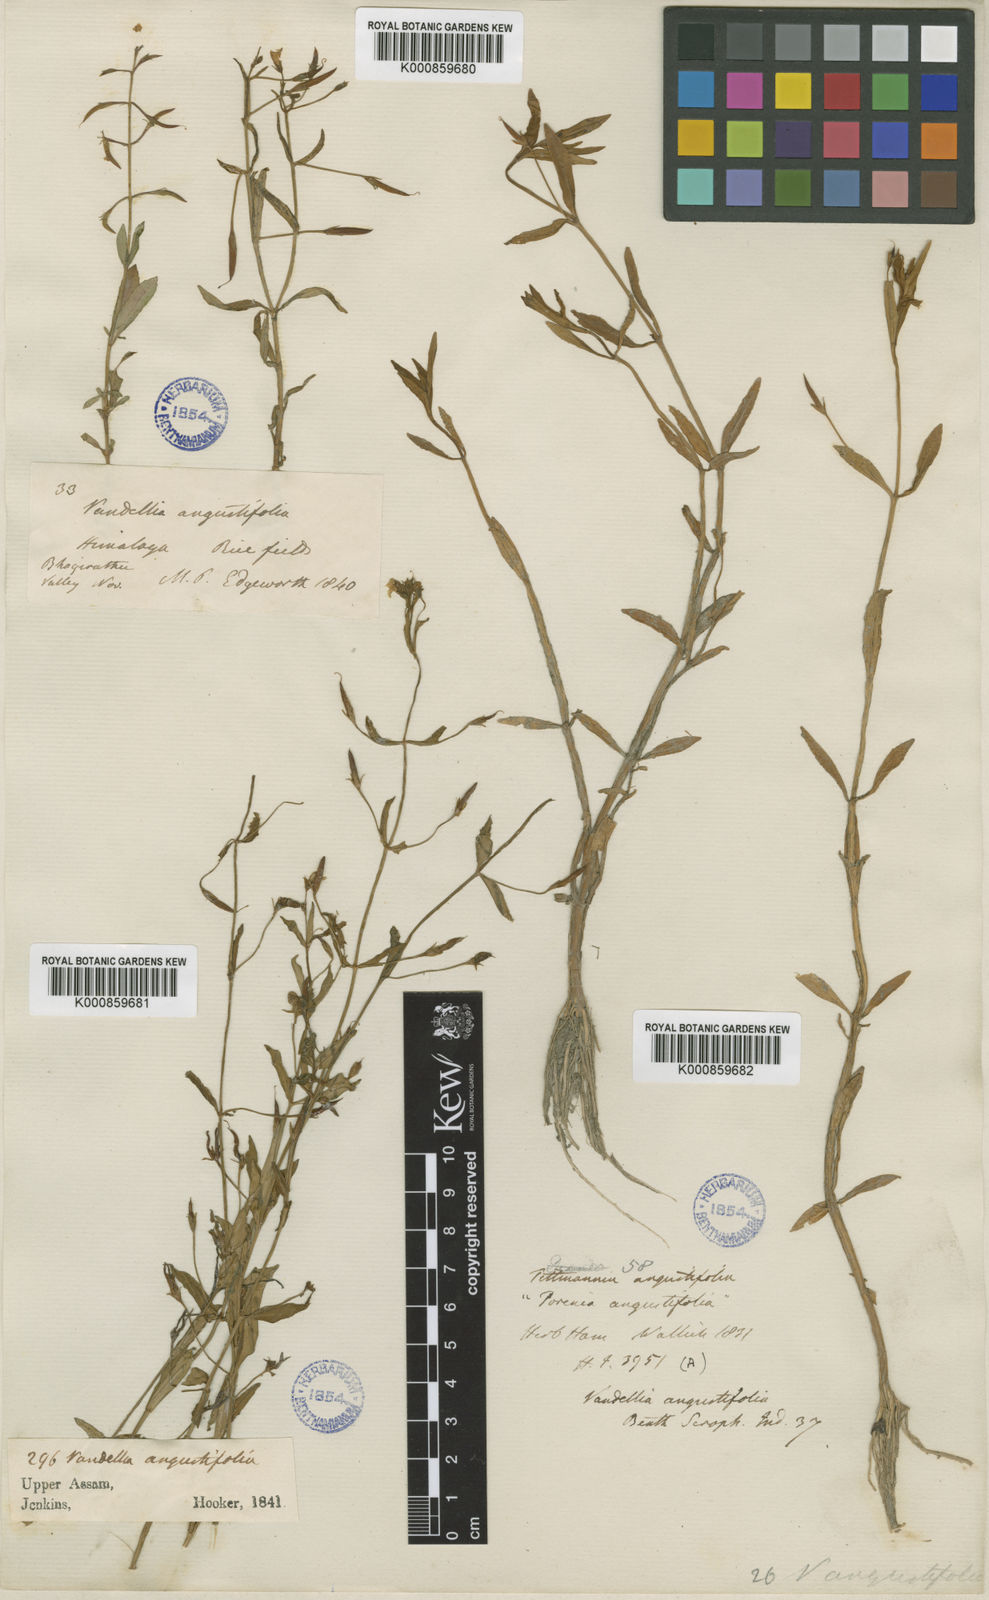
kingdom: Plantae
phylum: Tracheophyta
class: Magnoliopsida
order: Lamiales
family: Linderniaceae
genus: Torenia
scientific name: Torenia anagallis
